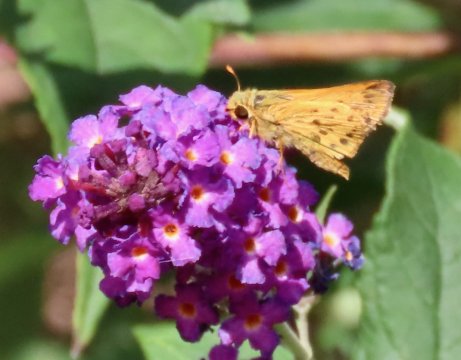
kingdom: Animalia
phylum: Arthropoda
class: Insecta
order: Lepidoptera
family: Hesperiidae
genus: Hylephila
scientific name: Hylephila phyleus
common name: Fiery Skipper
